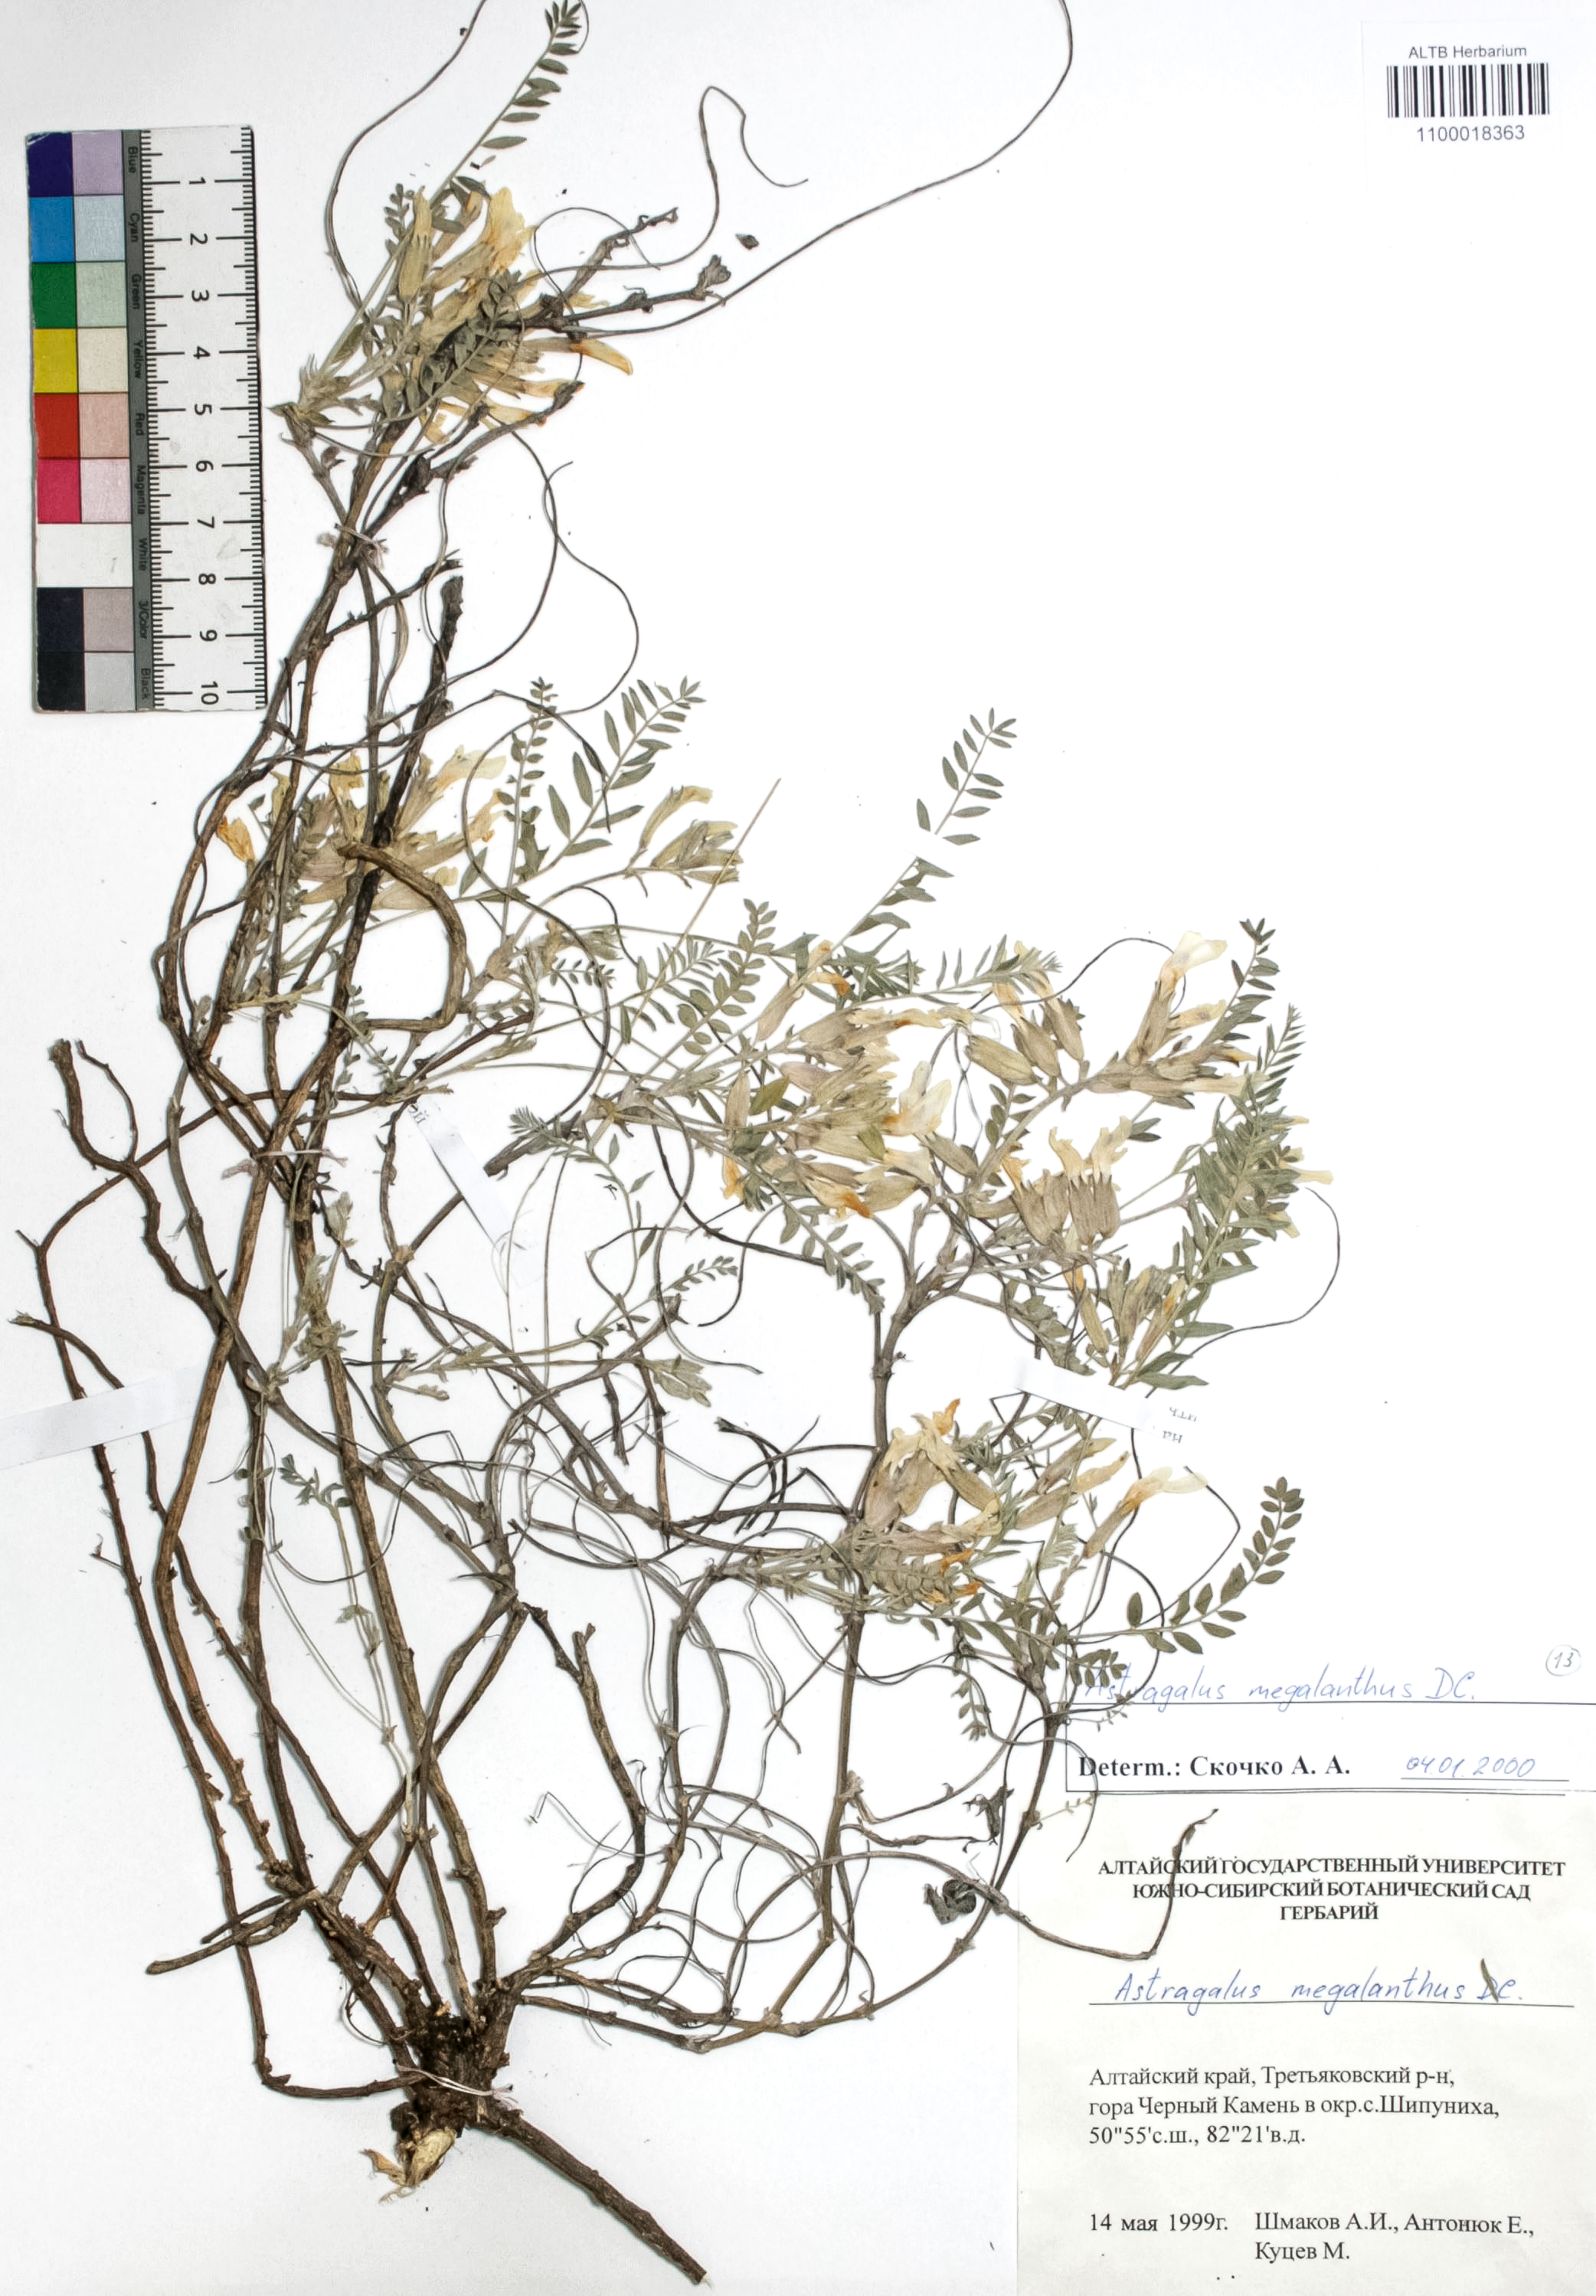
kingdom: Plantae
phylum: Tracheophyta
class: Magnoliopsida
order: Fabales
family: Fabaceae
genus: Astragalus
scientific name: Astragalus leptostachys
